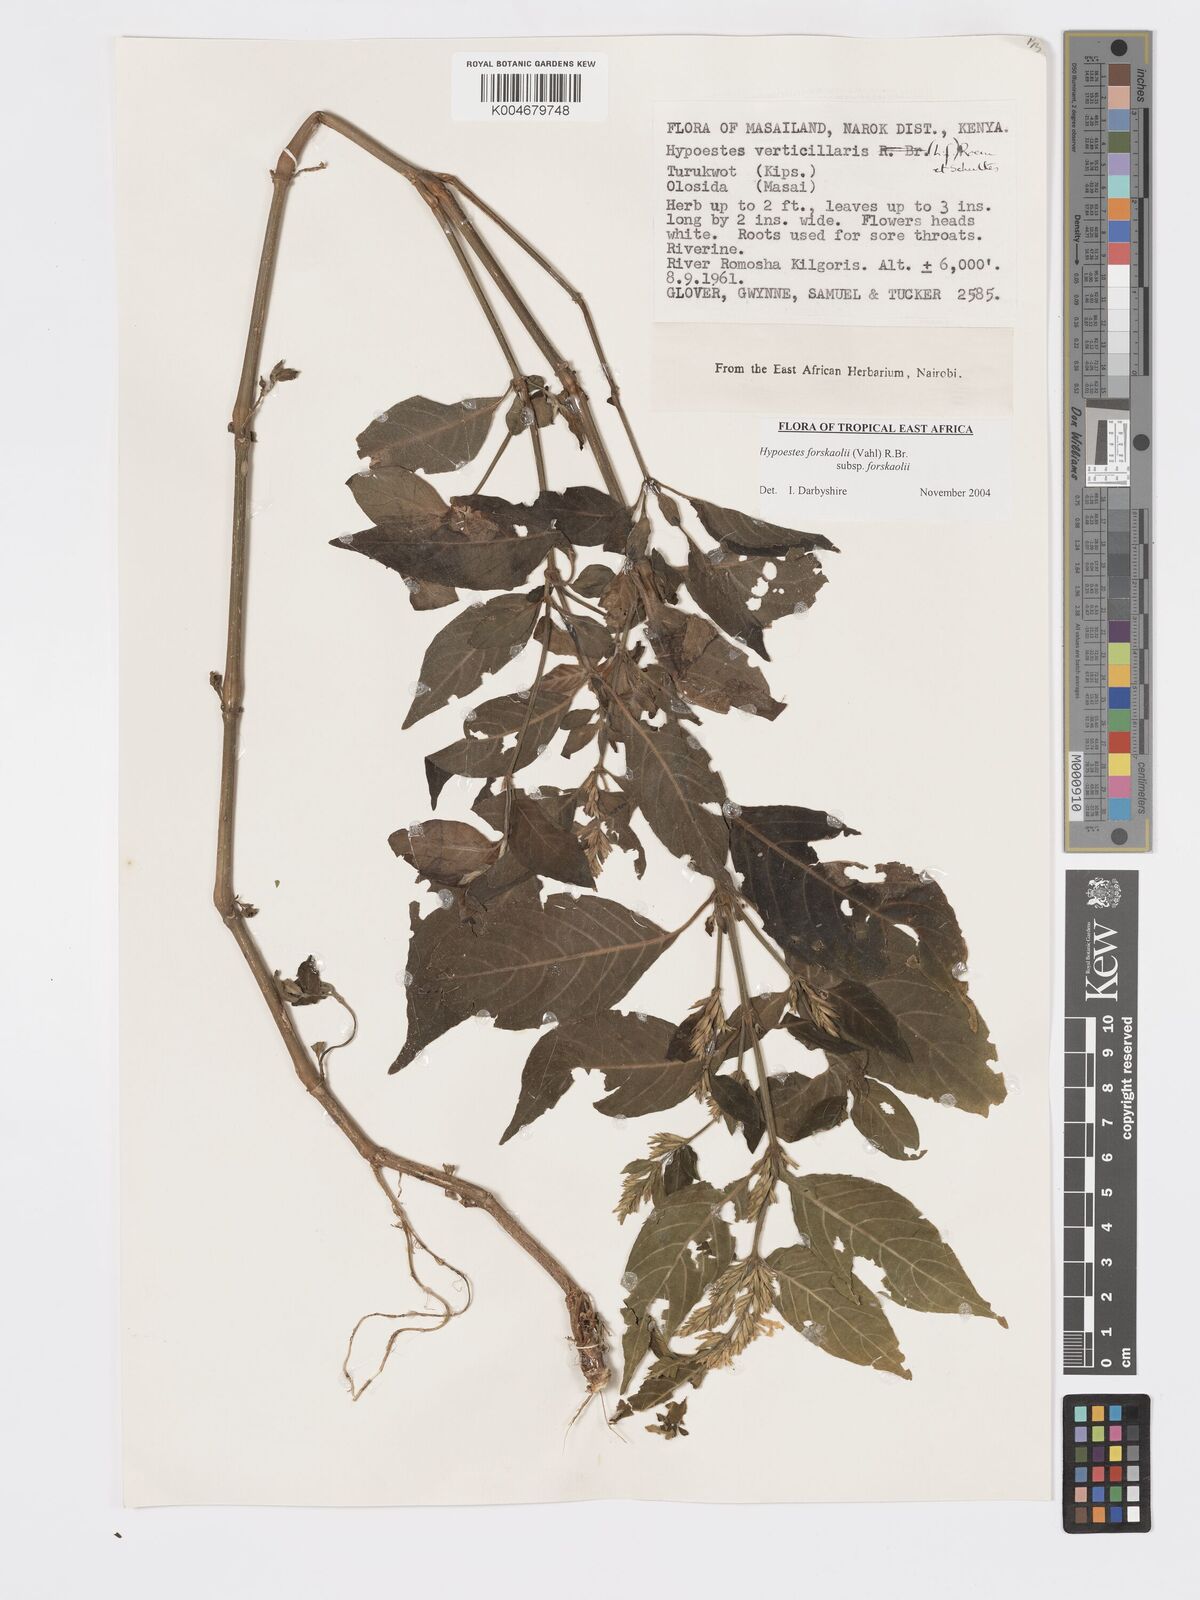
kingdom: Plantae
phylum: Tracheophyta
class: Magnoliopsida
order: Lamiales
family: Acanthaceae
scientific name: Acanthaceae
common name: Acanthaceae
